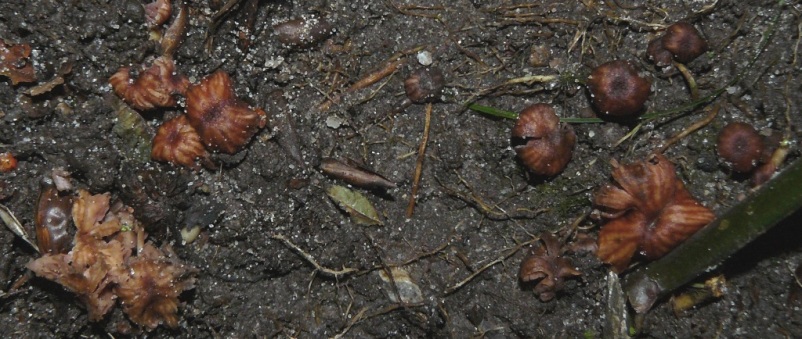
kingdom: Fungi
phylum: Basidiomycota
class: Agaricomycetes
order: Agaricales
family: Hydnangiaceae
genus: Laccaria
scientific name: Laccaria tortilis
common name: krybende ametysthat
